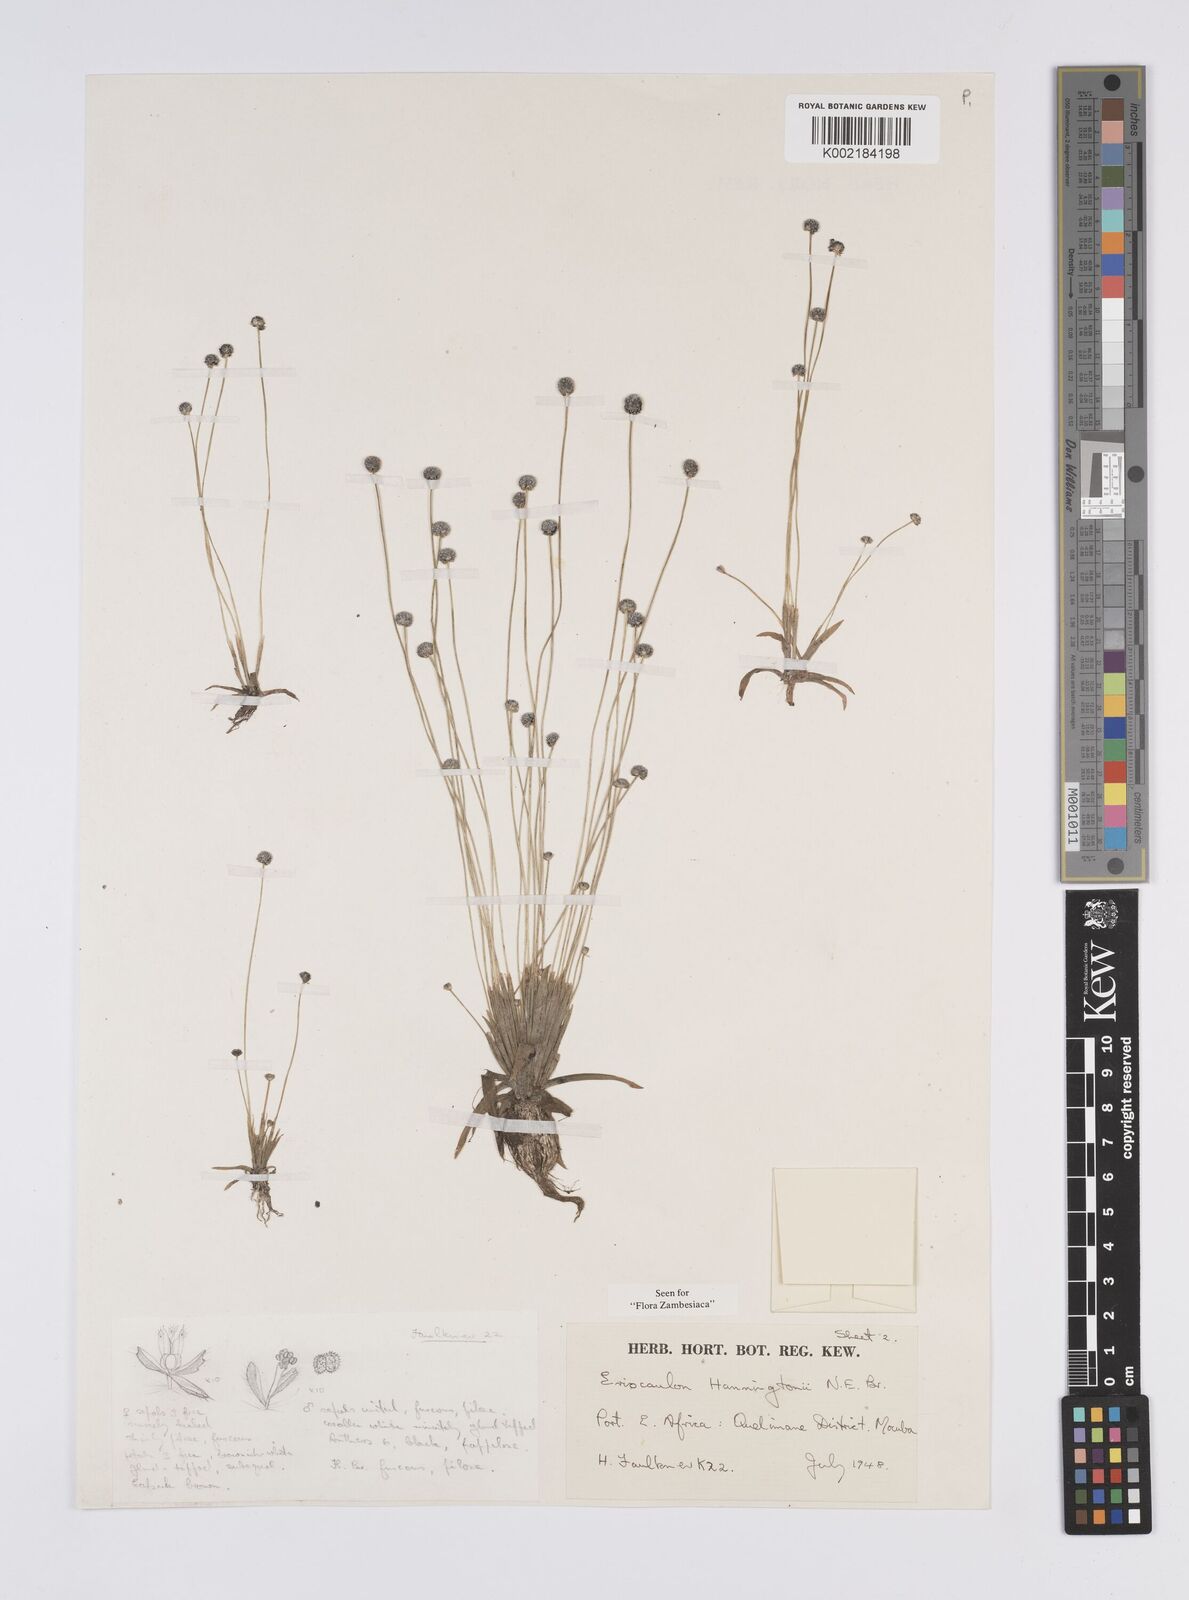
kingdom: Plantae
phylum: Tracheophyta
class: Liliopsida
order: Poales
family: Eriocaulaceae
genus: Eriocaulon
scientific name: Eriocaulon transvaalicum
